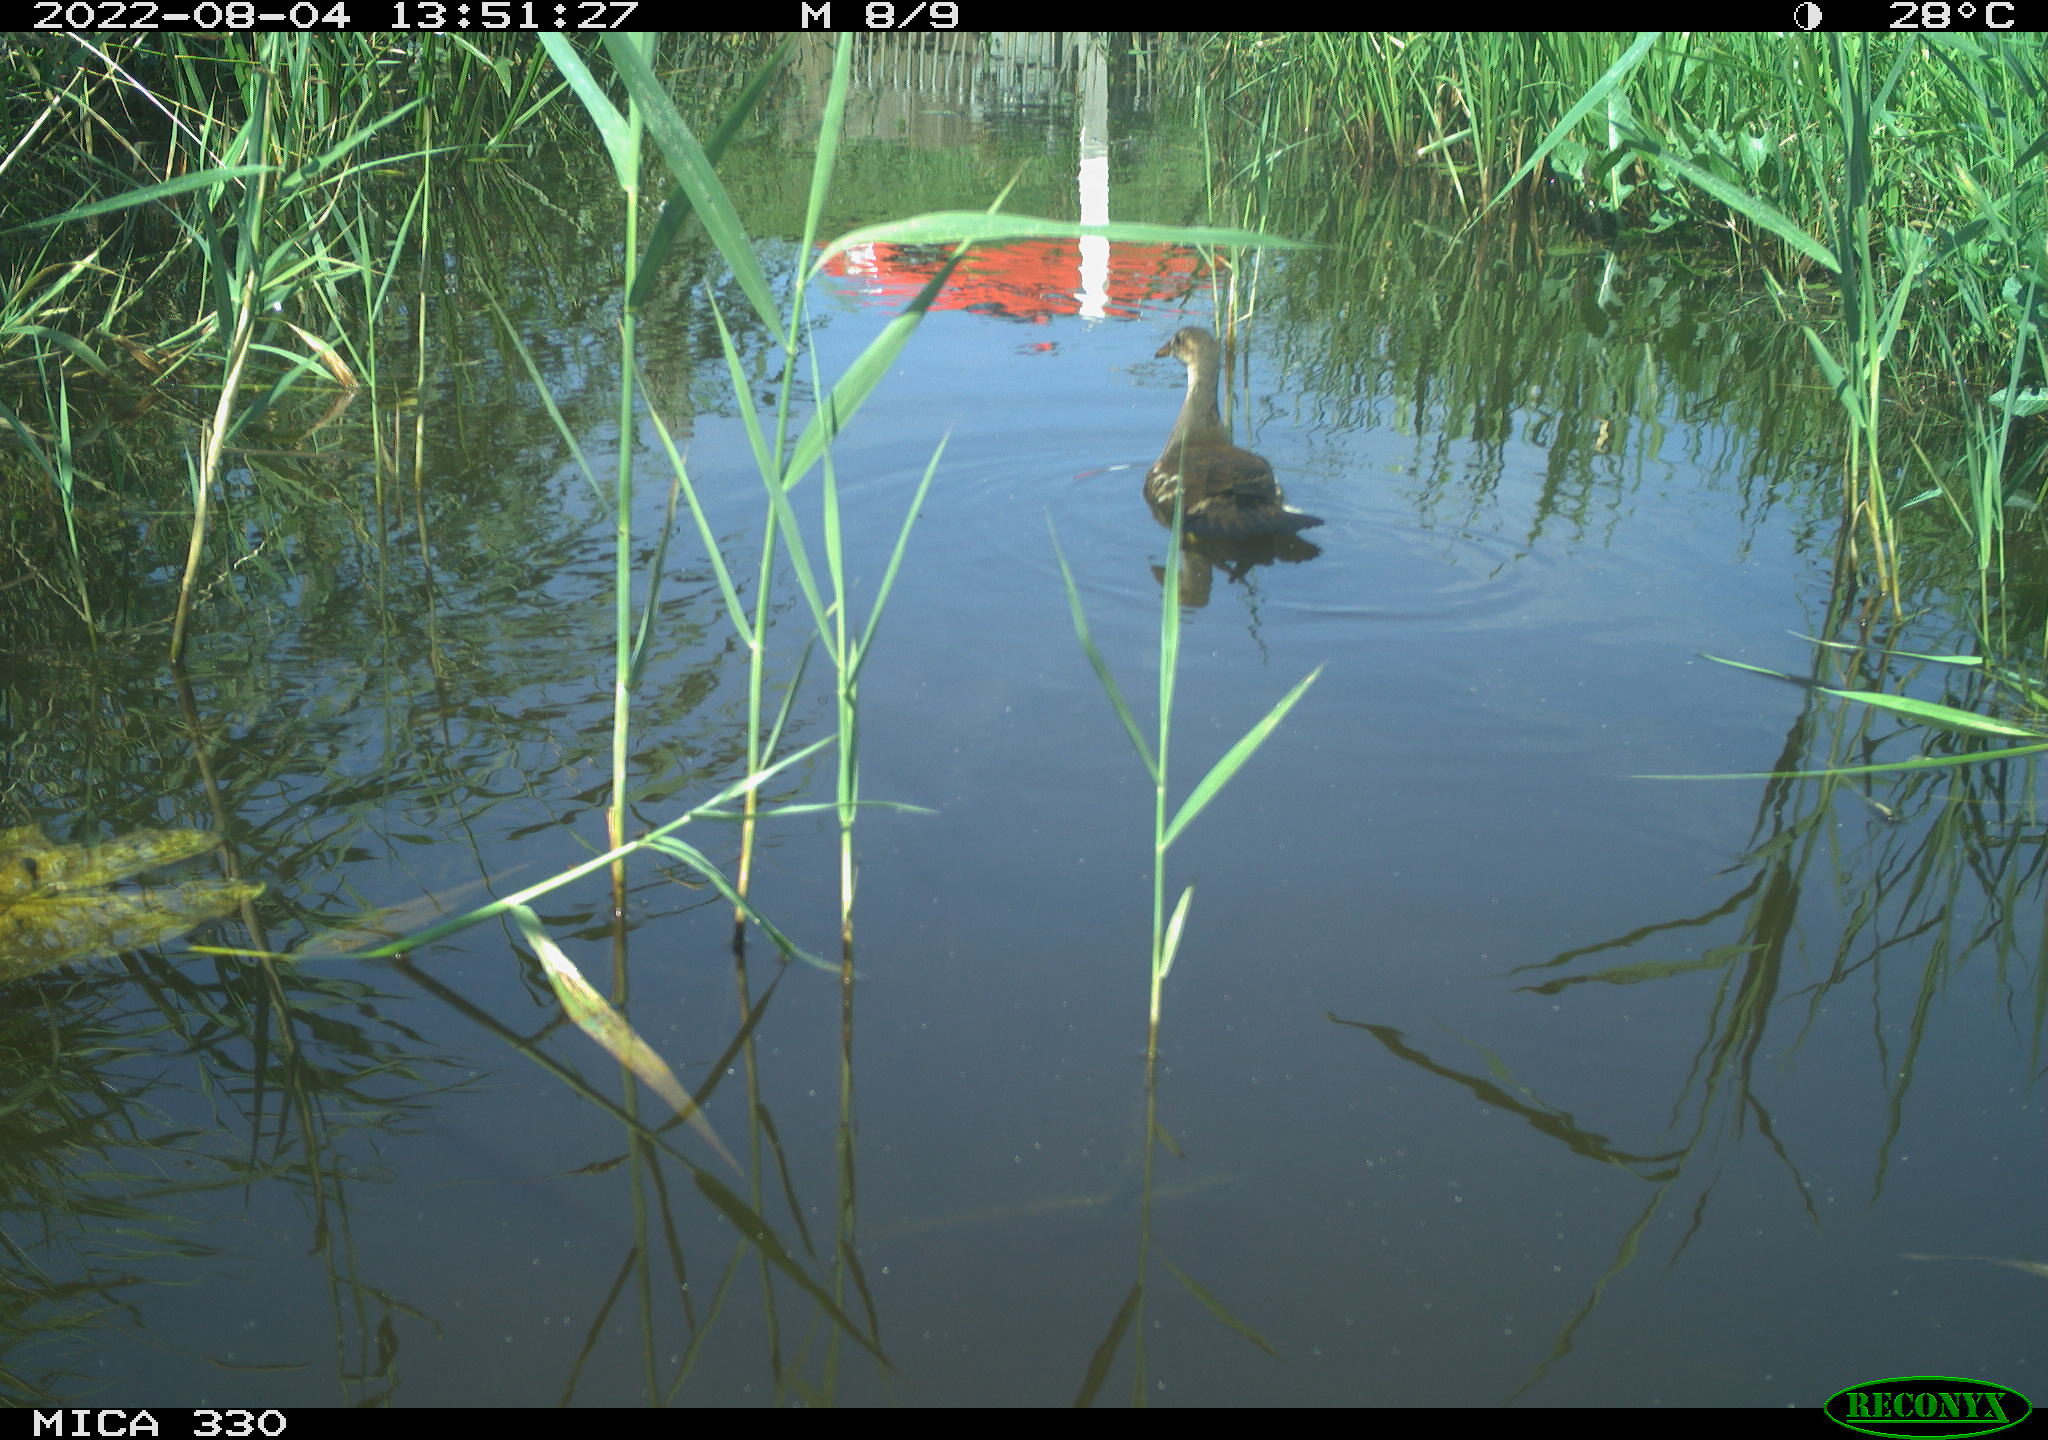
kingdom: Animalia
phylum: Chordata
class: Aves
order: Gruiformes
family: Rallidae
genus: Gallinula
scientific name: Gallinula chloropus
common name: Common moorhen
